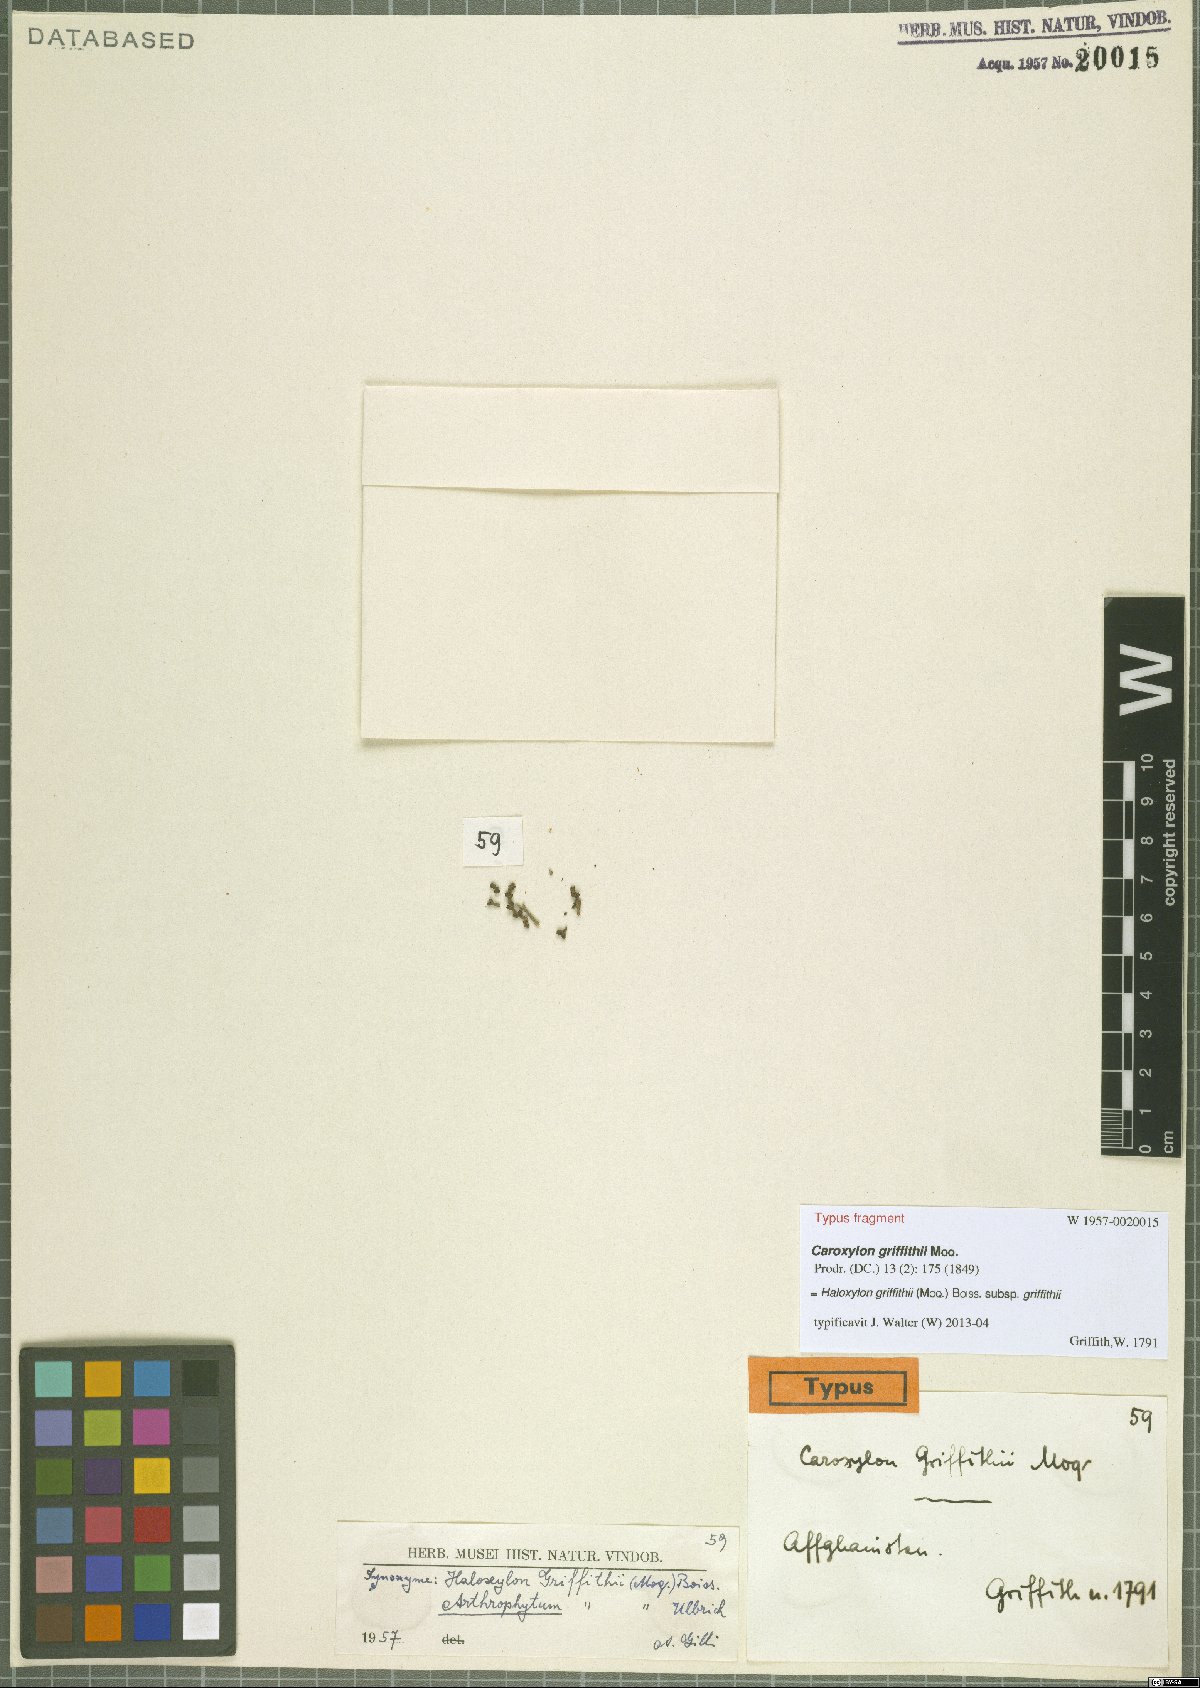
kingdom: Plantae
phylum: Tracheophyta
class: Magnoliopsida
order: Caryophyllales
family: Amaranthaceae
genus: Haloxylon
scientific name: Haloxylon griffithii
